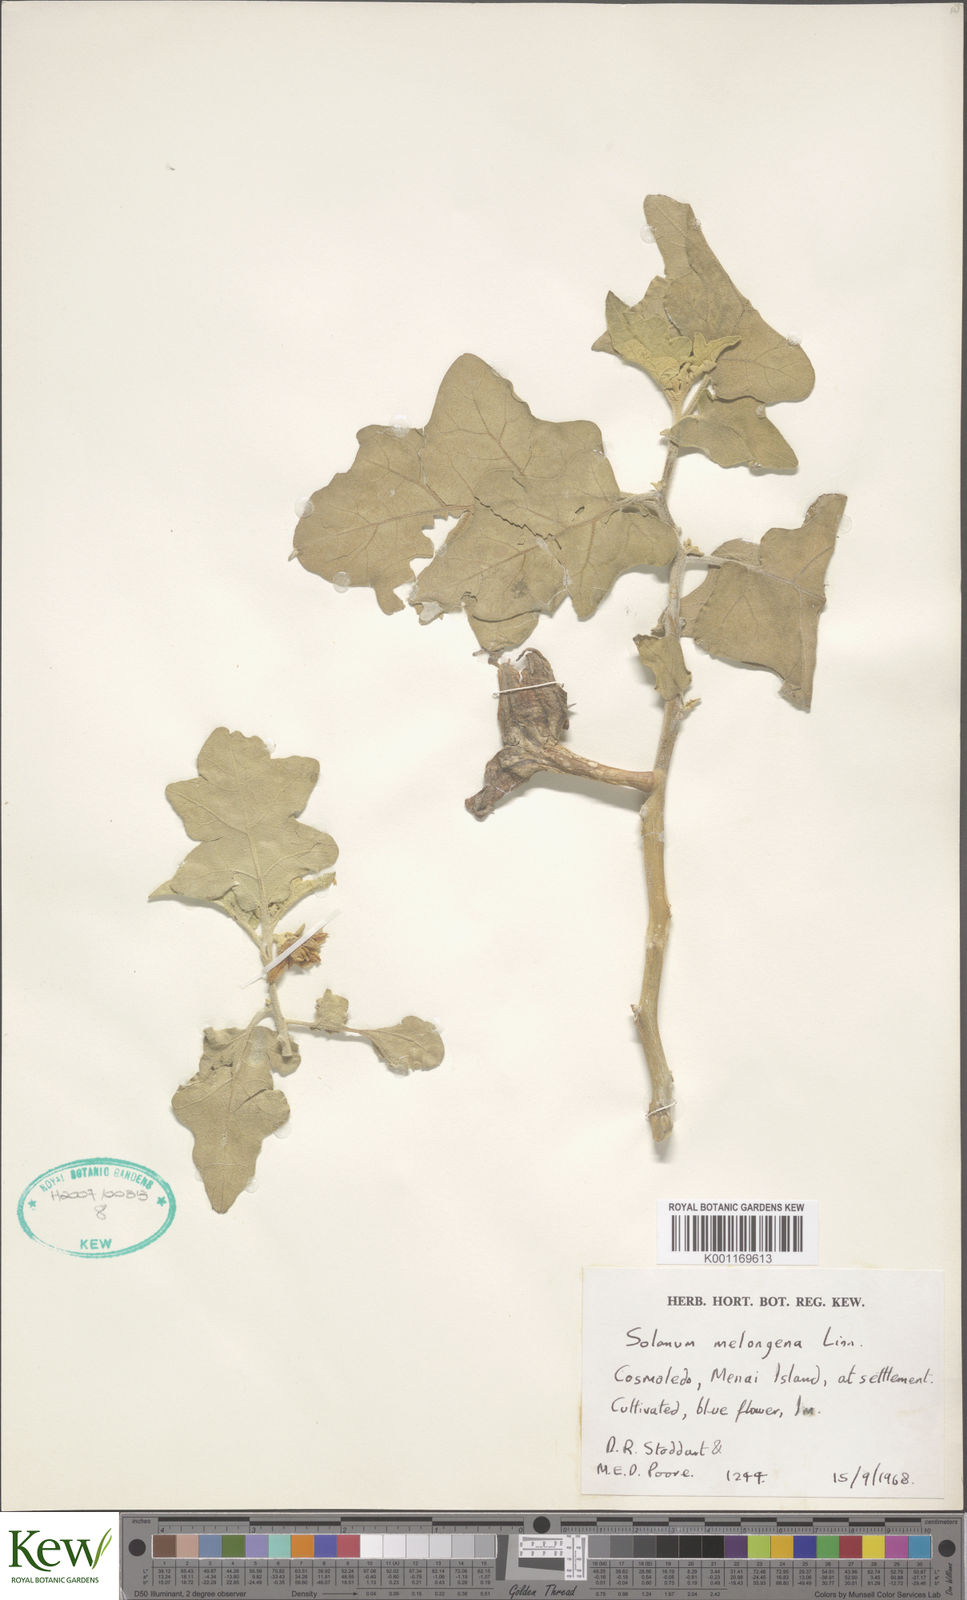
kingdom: Plantae
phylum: Tracheophyta
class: Magnoliopsida
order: Solanales
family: Solanaceae
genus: Solanum
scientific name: Solanum melongena
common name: Eggplant
